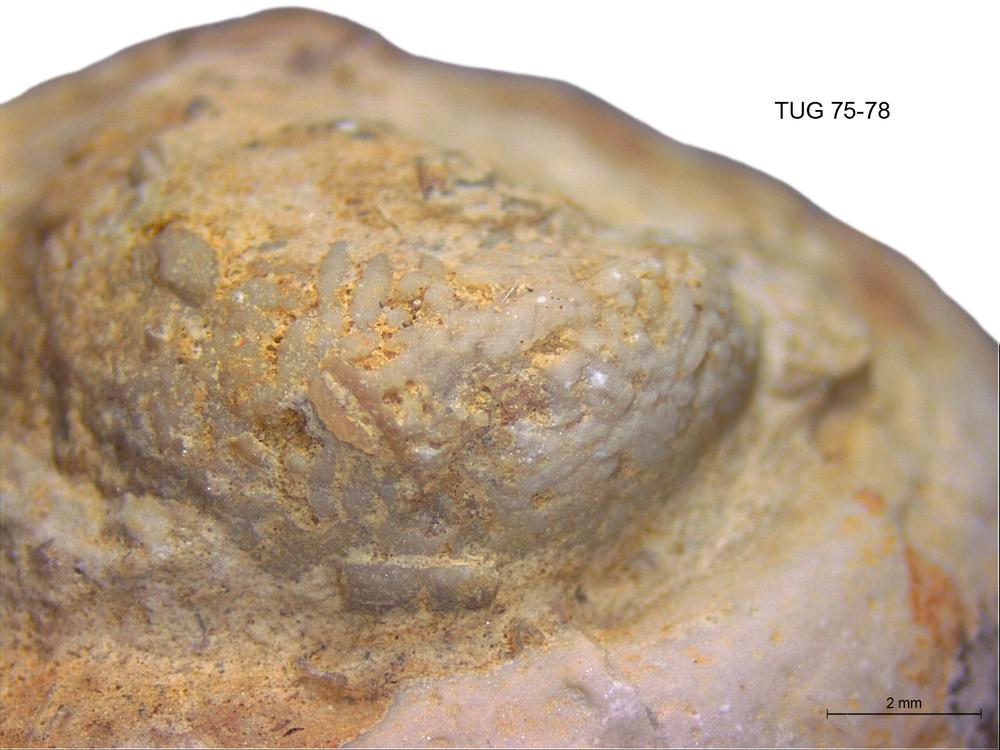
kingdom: Animalia
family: Coprulidae
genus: Coprulus
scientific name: Coprulus
